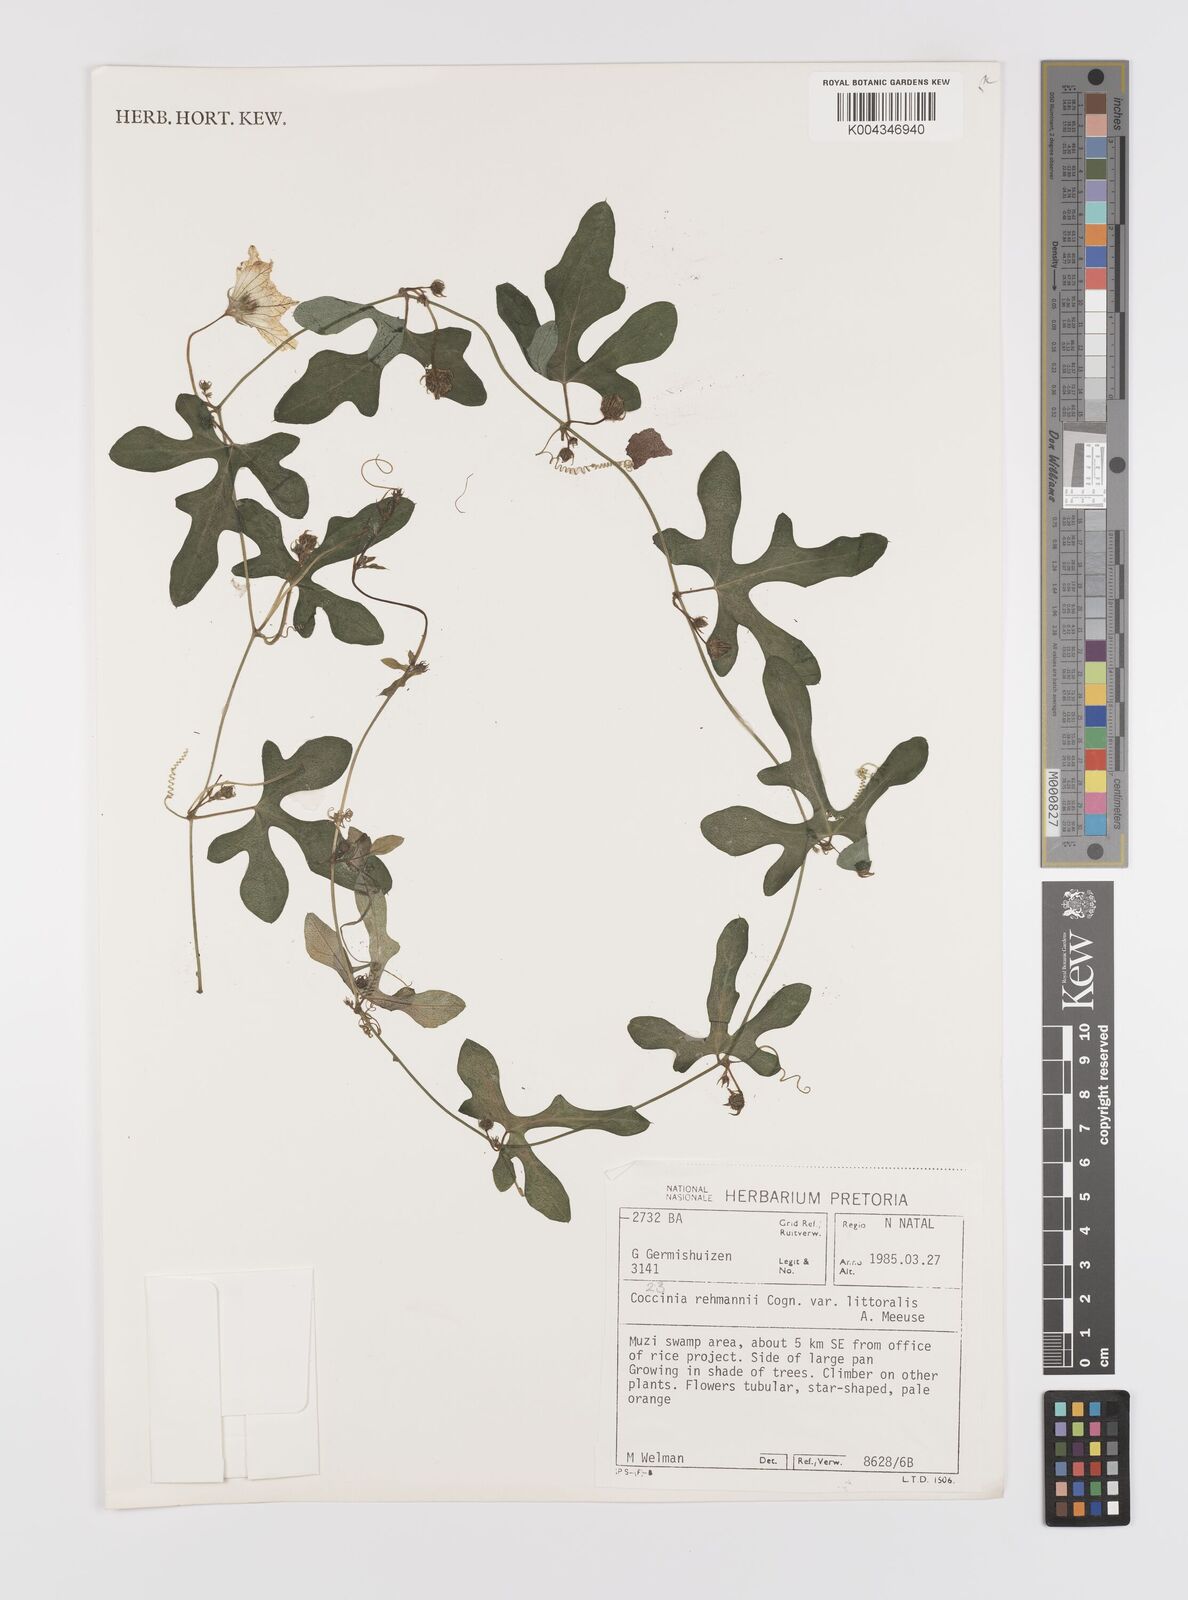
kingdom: Plantae
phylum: Tracheophyta
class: Magnoliopsida
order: Cucurbitales
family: Cucurbitaceae
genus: Coccinia
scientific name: Coccinia rehmannii
